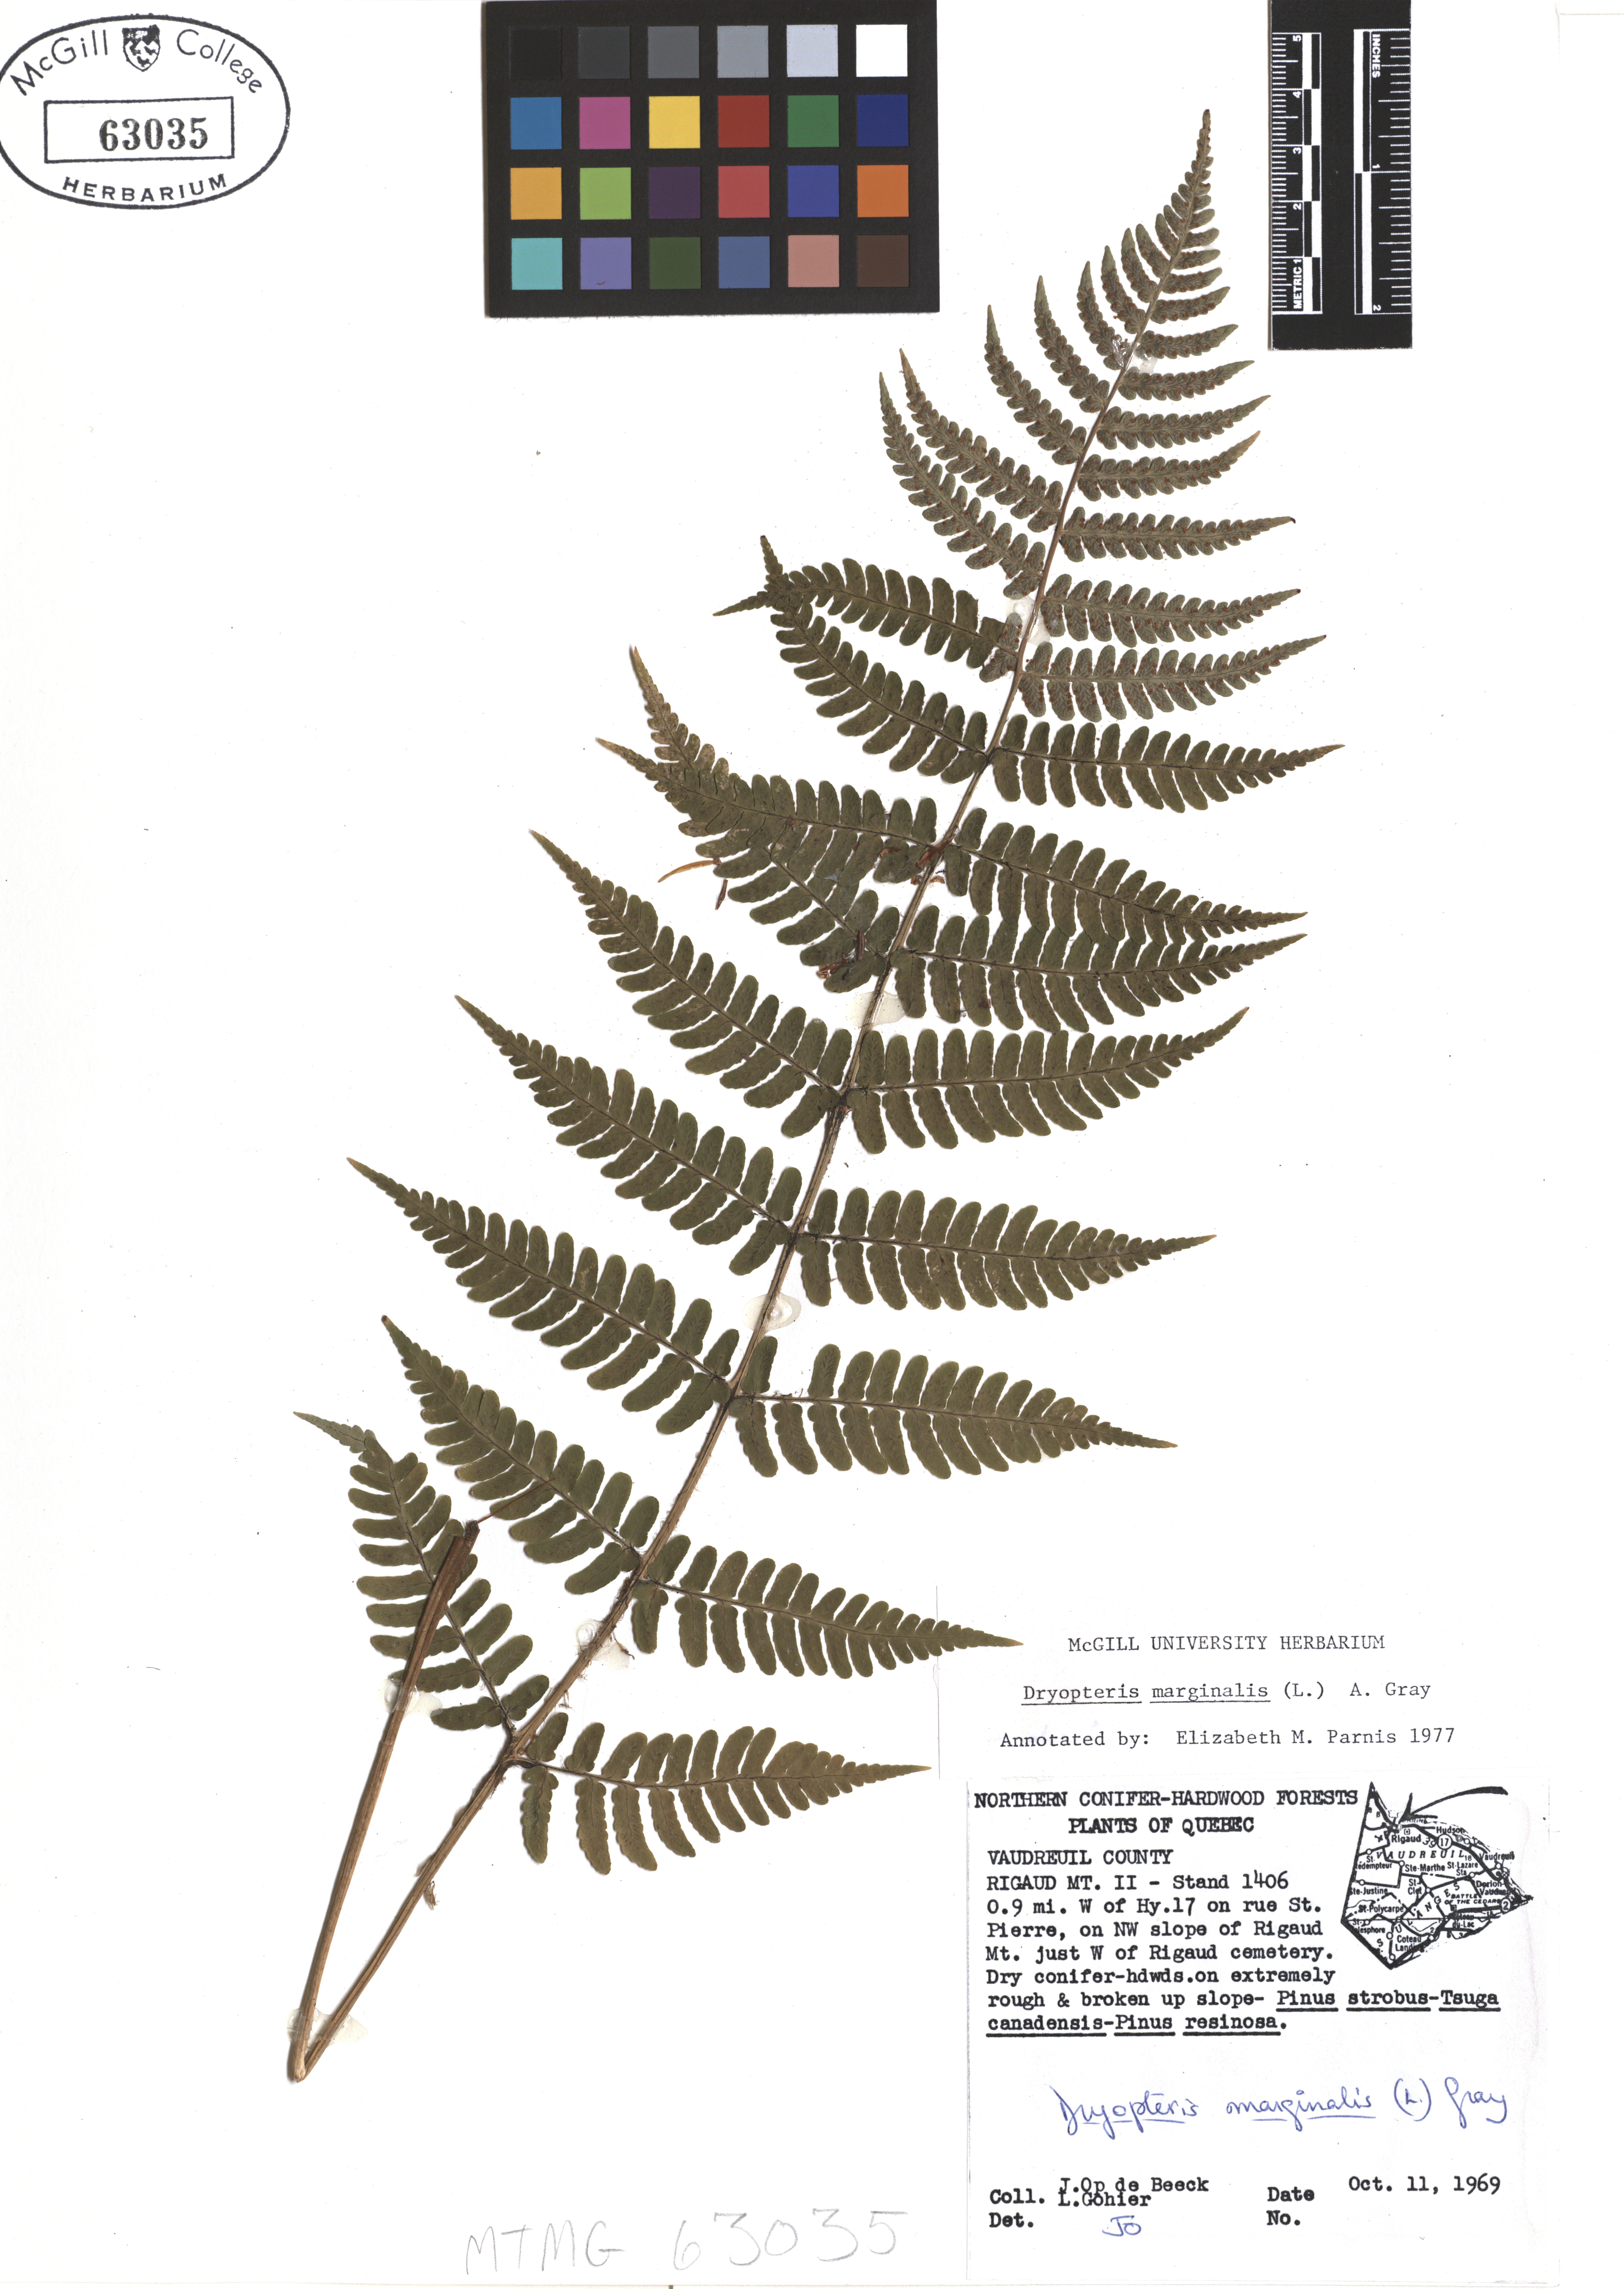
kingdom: Plantae
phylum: Tracheophyta
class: Polypodiopsida
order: Polypodiales
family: Dryopteridaceae
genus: Dryopteris
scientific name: Dryopteris marginalis
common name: Marginal wood fern
